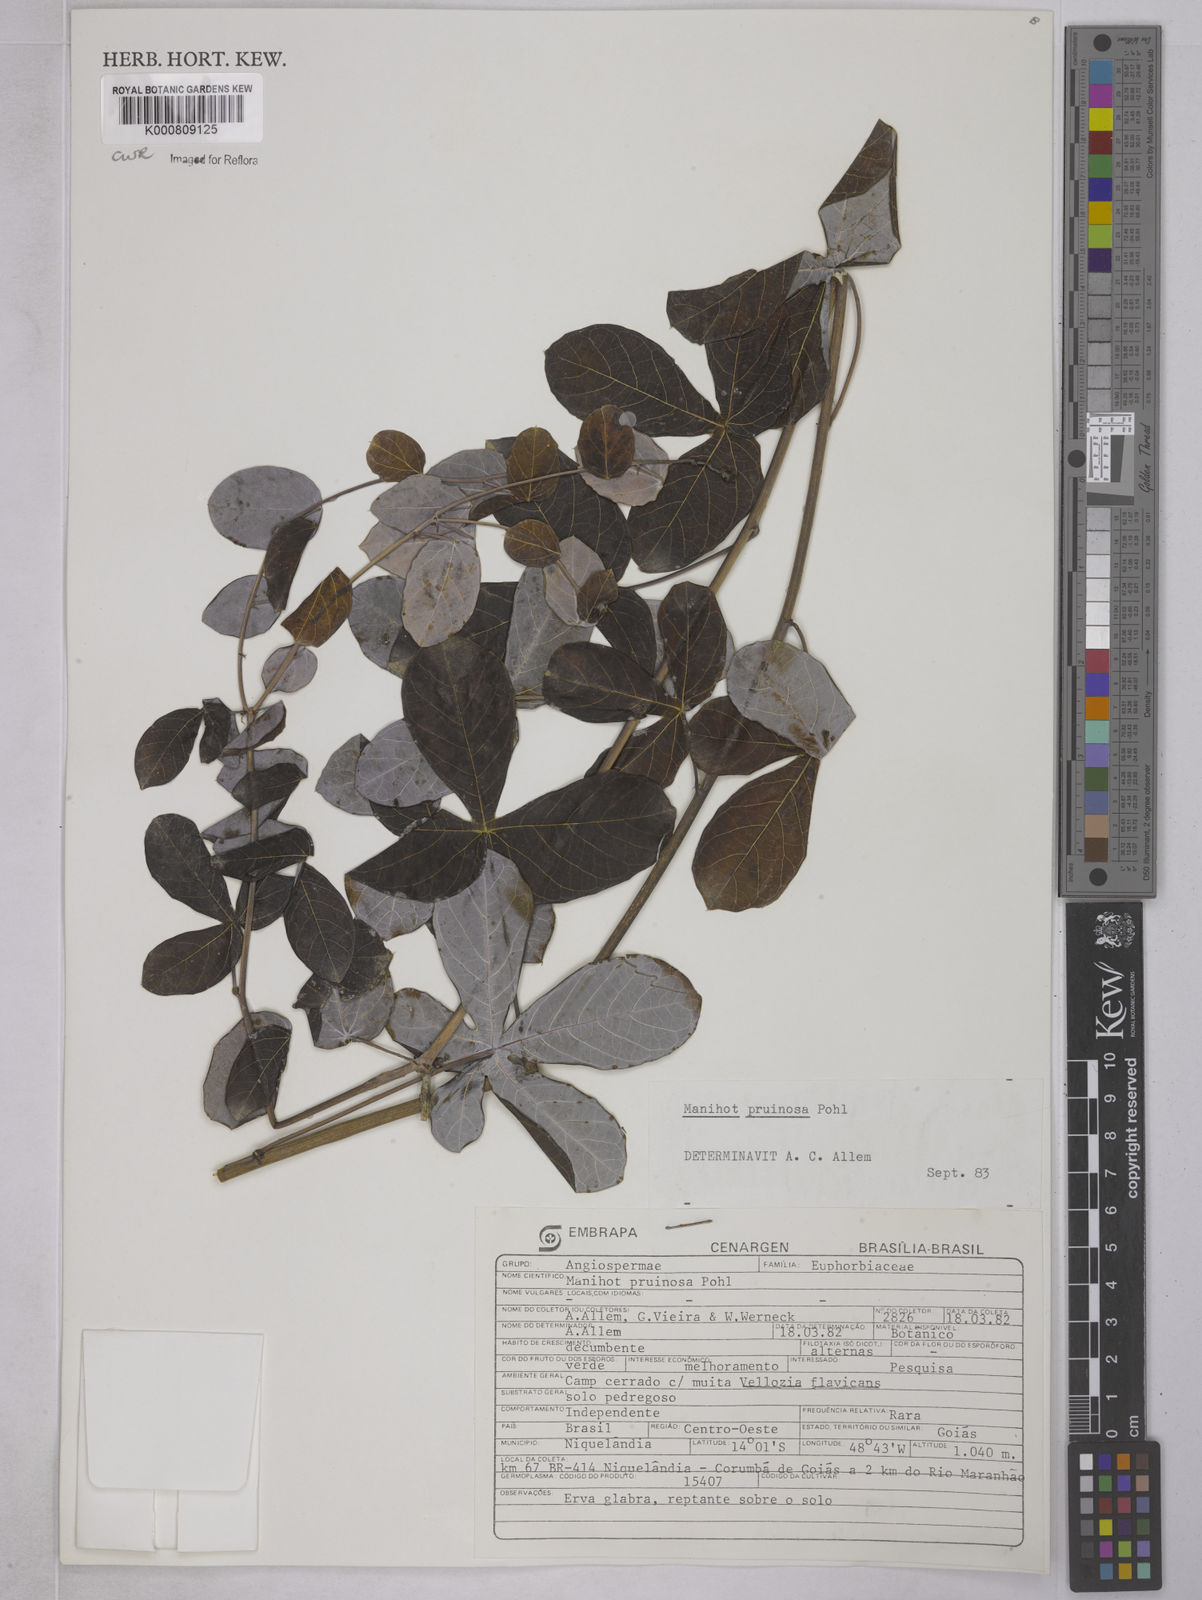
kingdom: Plantae
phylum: Tracheophyta
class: Magnoliopsida
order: Malpighiales
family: Euphorbiaceae
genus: Manihot
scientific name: Manihot pruinosa
